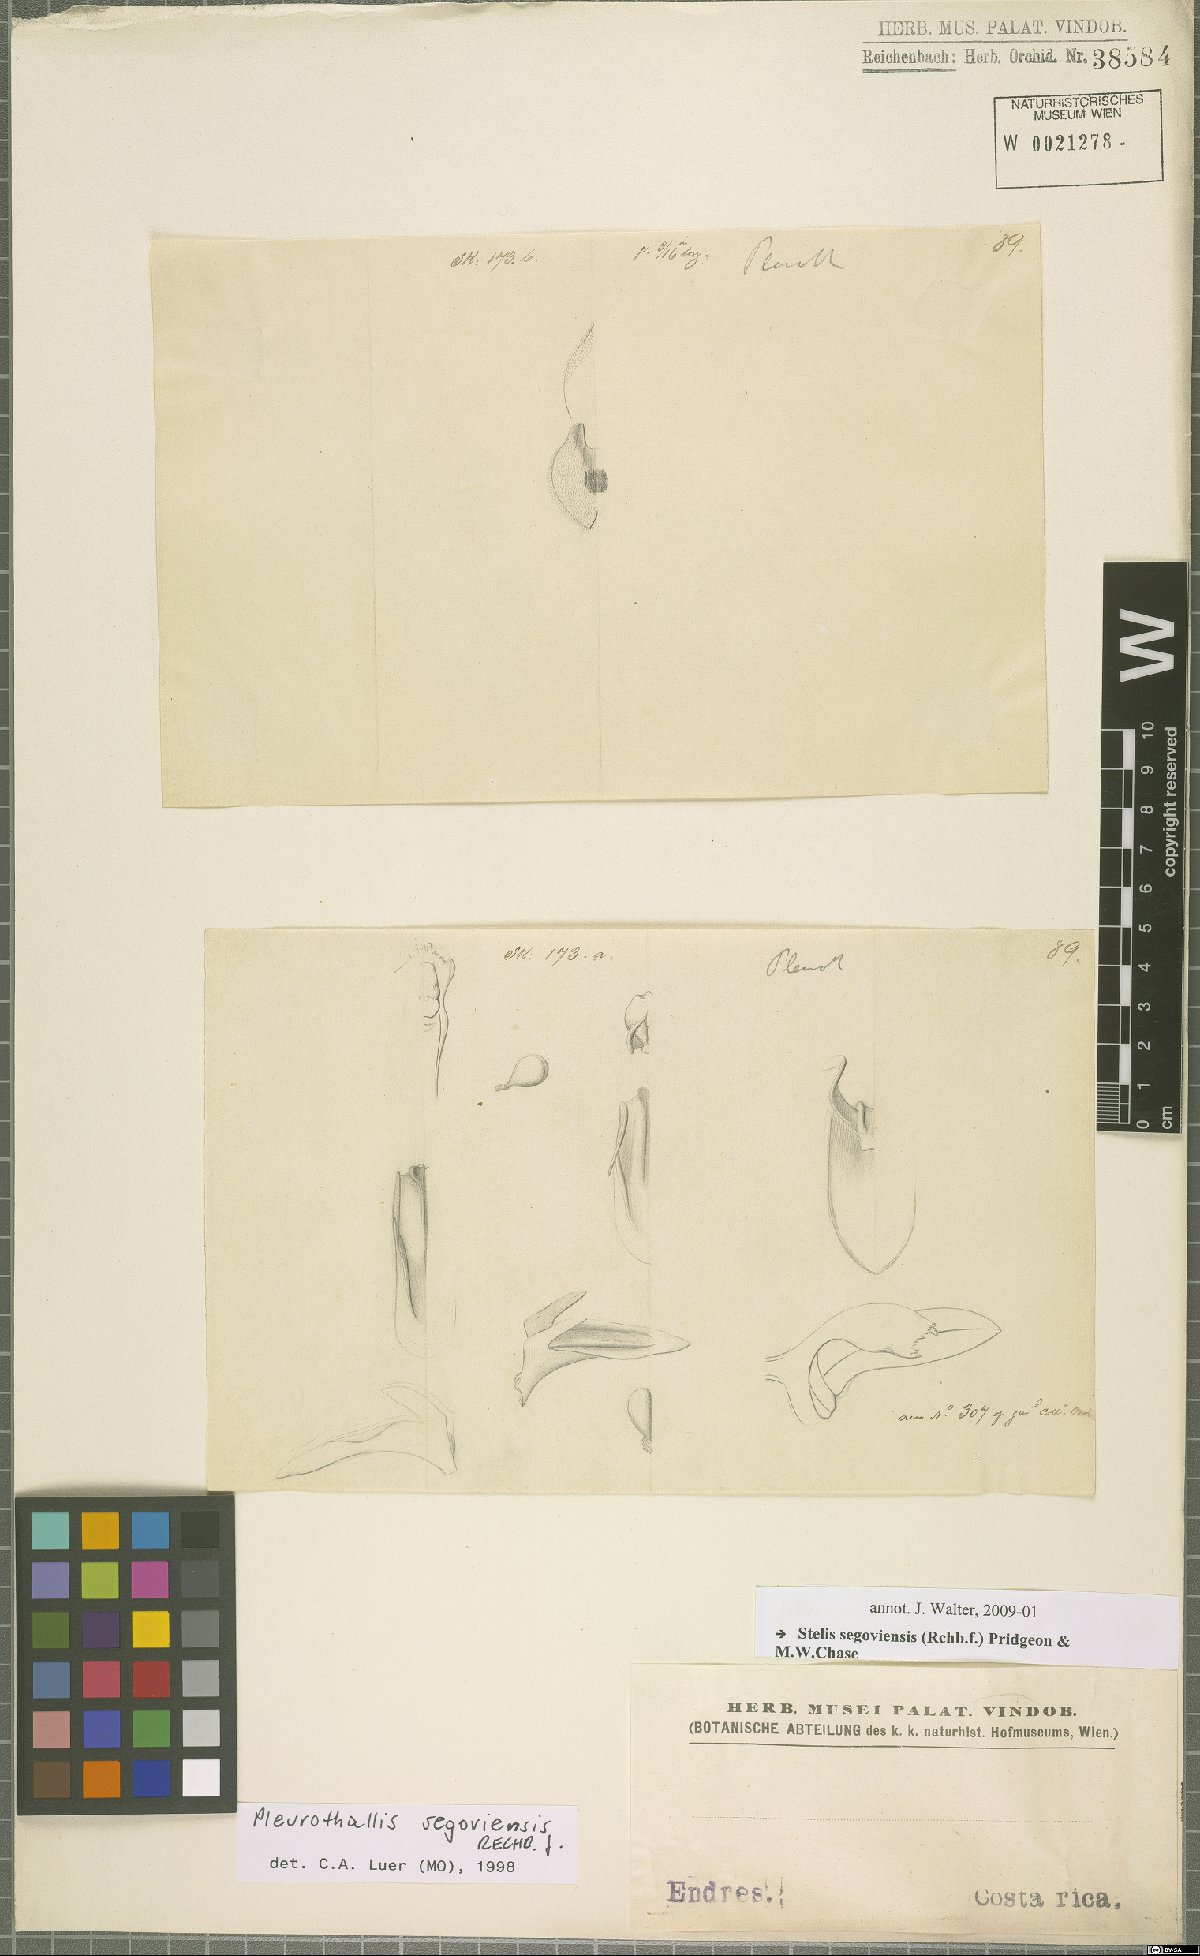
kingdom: Plantae
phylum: Tracheophyta
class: Liliopsida
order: Asparagales
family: Orchidaceae
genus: Stelis
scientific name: Stelis segoviensis
